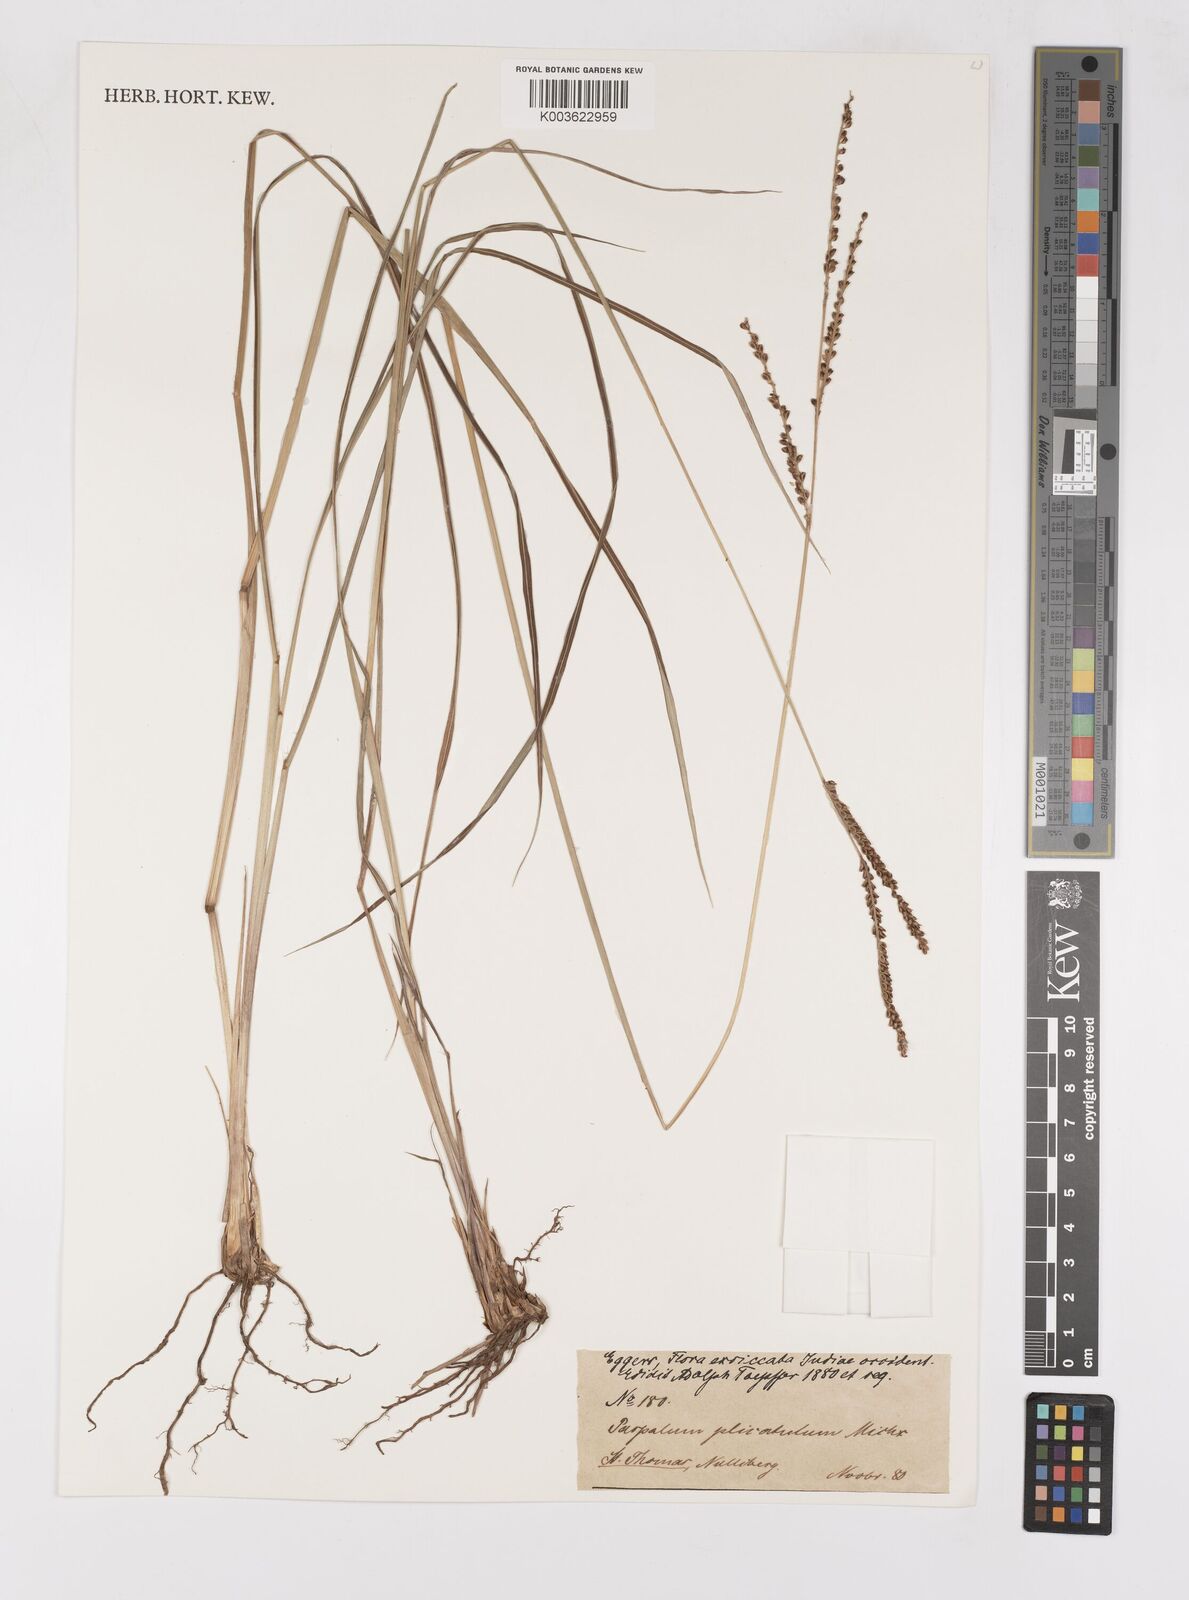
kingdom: Plantae
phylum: Tracheophyta
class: Liliopsida
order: Poales
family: Poaceae
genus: Paspalum
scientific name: Paspalum plicatulum
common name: Top paspalum
